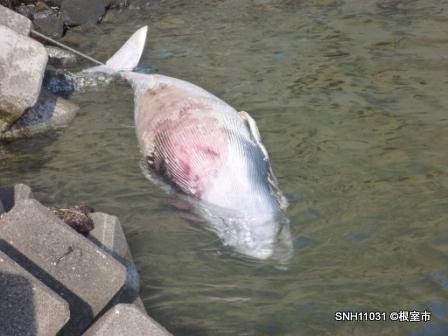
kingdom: Animalia
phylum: Chordata
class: Mammalia
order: Cetacea
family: Balaenopteridae
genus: Balaenoptera
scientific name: Balaenoptera acutorostrata
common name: Minke whale
